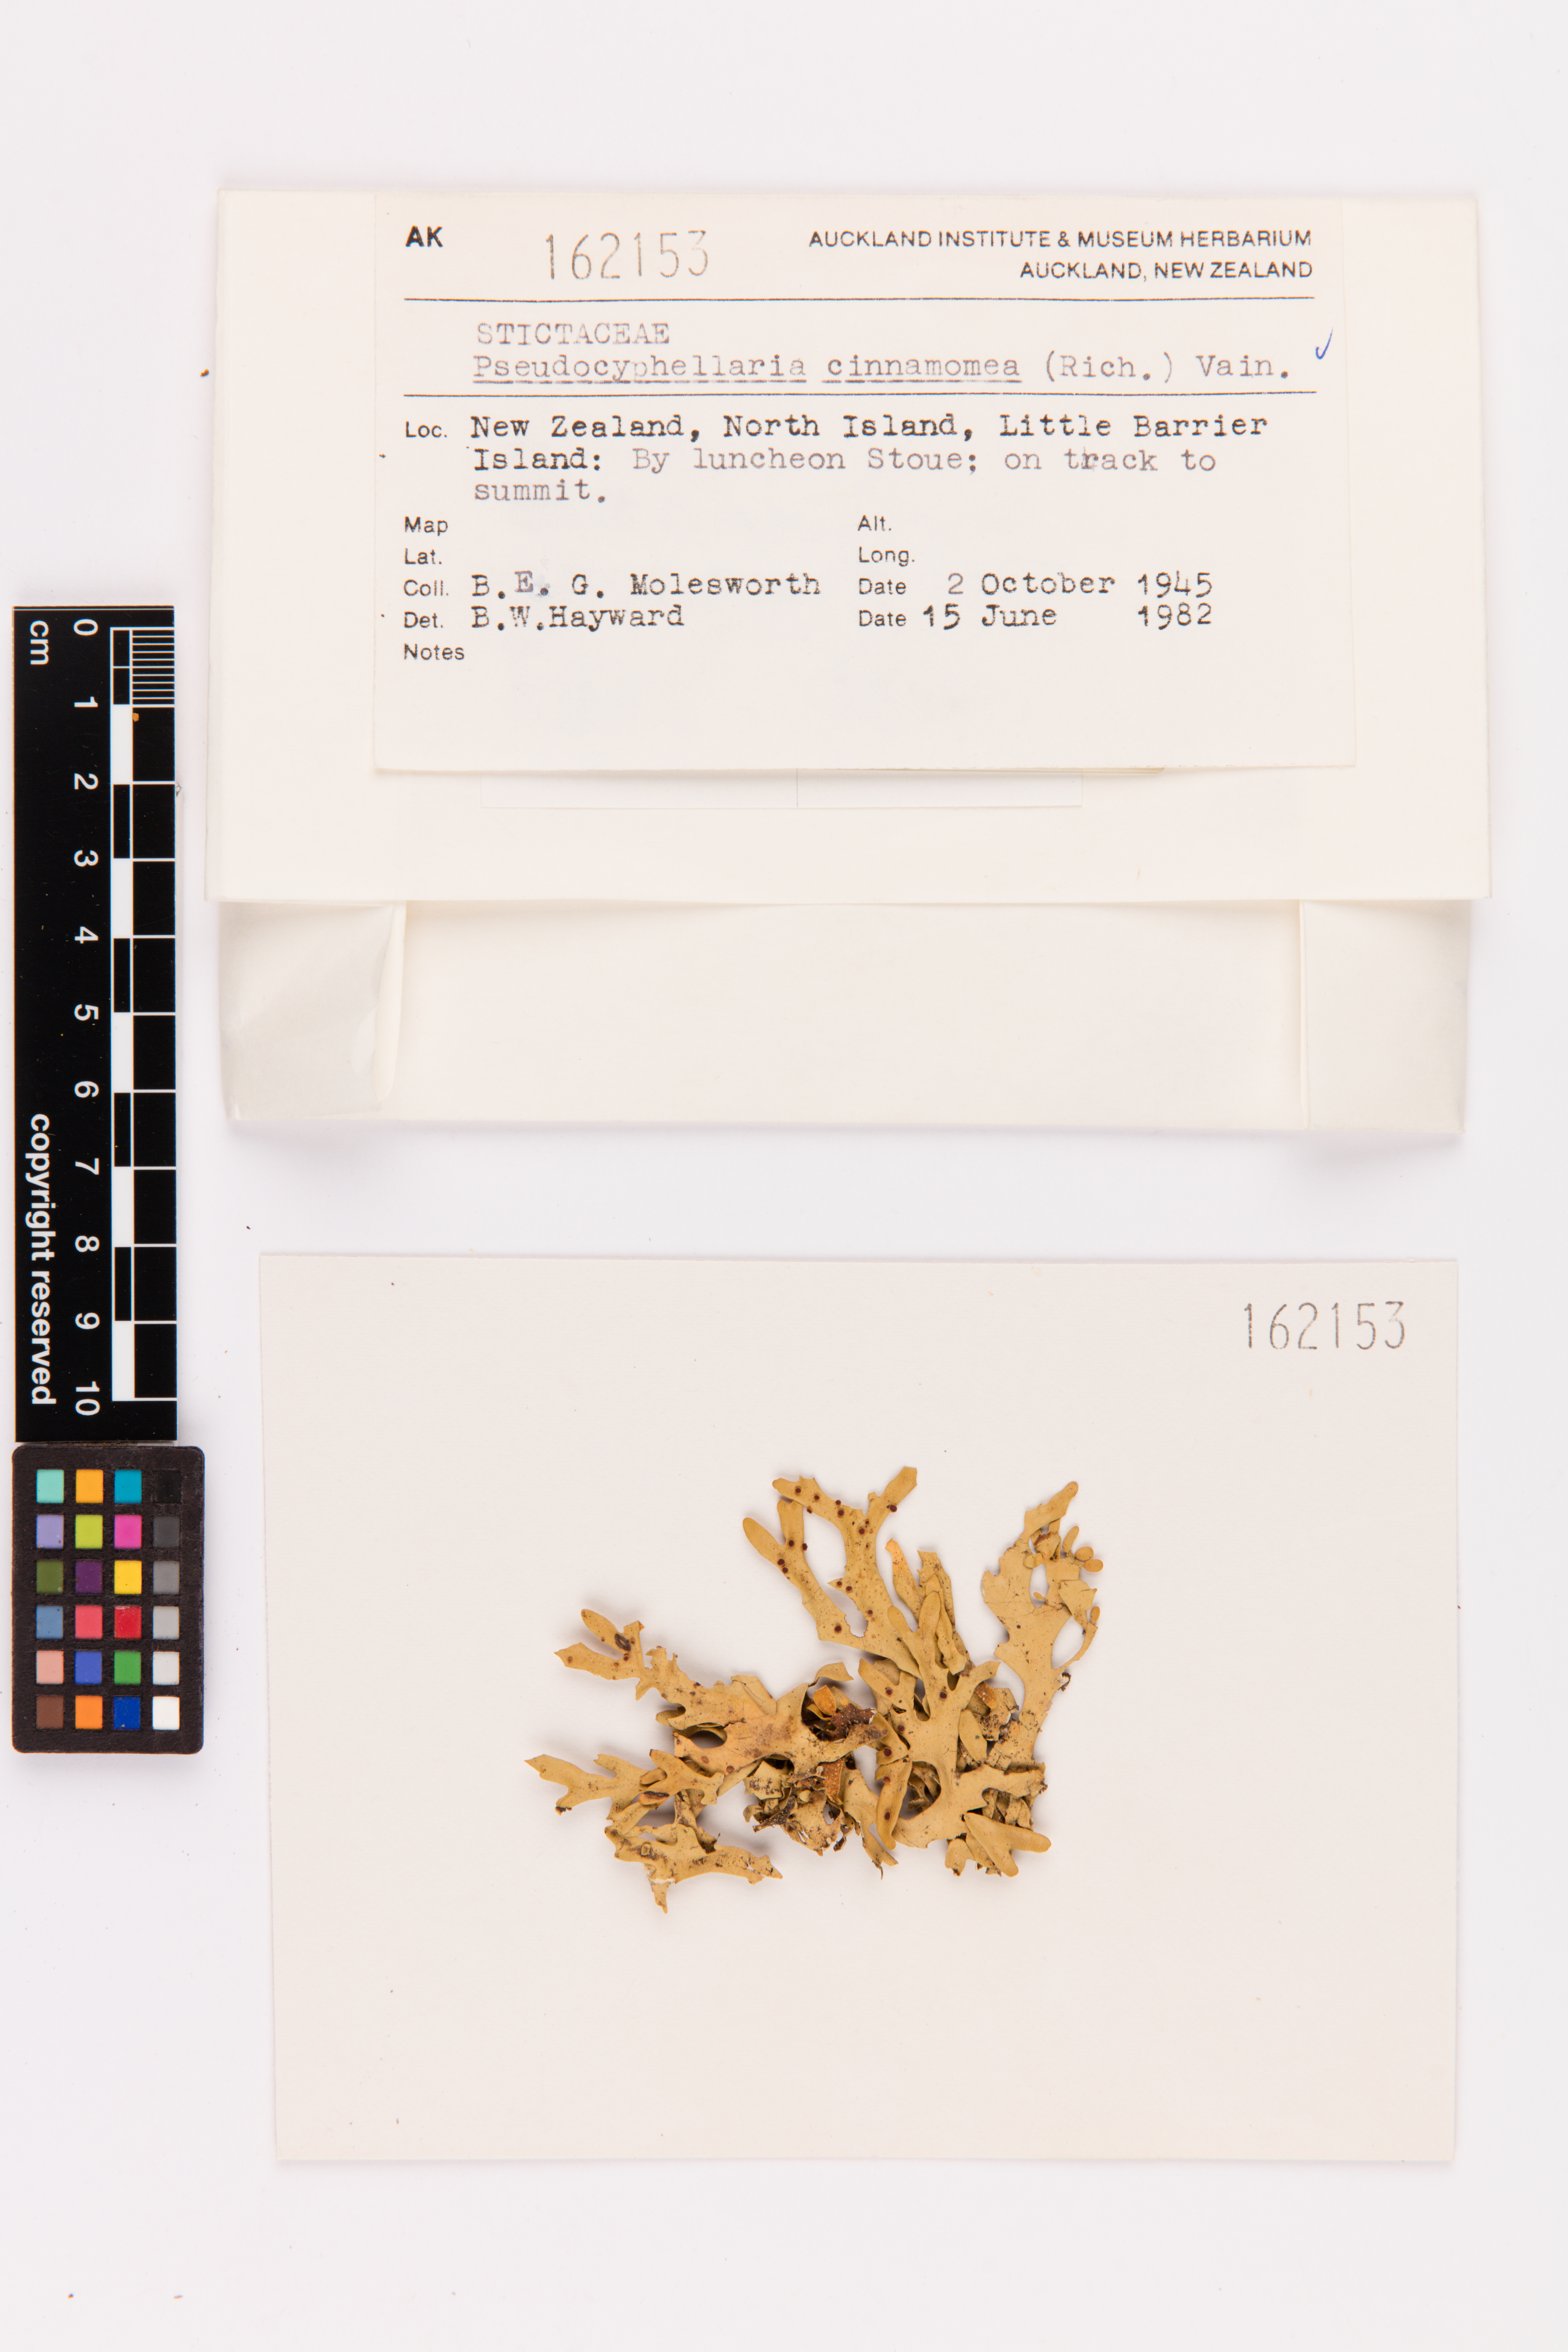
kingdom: Fungi
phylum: Ascomycota
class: Lecanoromycetes
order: Peltigerales
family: Lobariaceae
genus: Pseudocyphellaria
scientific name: Pseudocyphellaria cinnamomea
